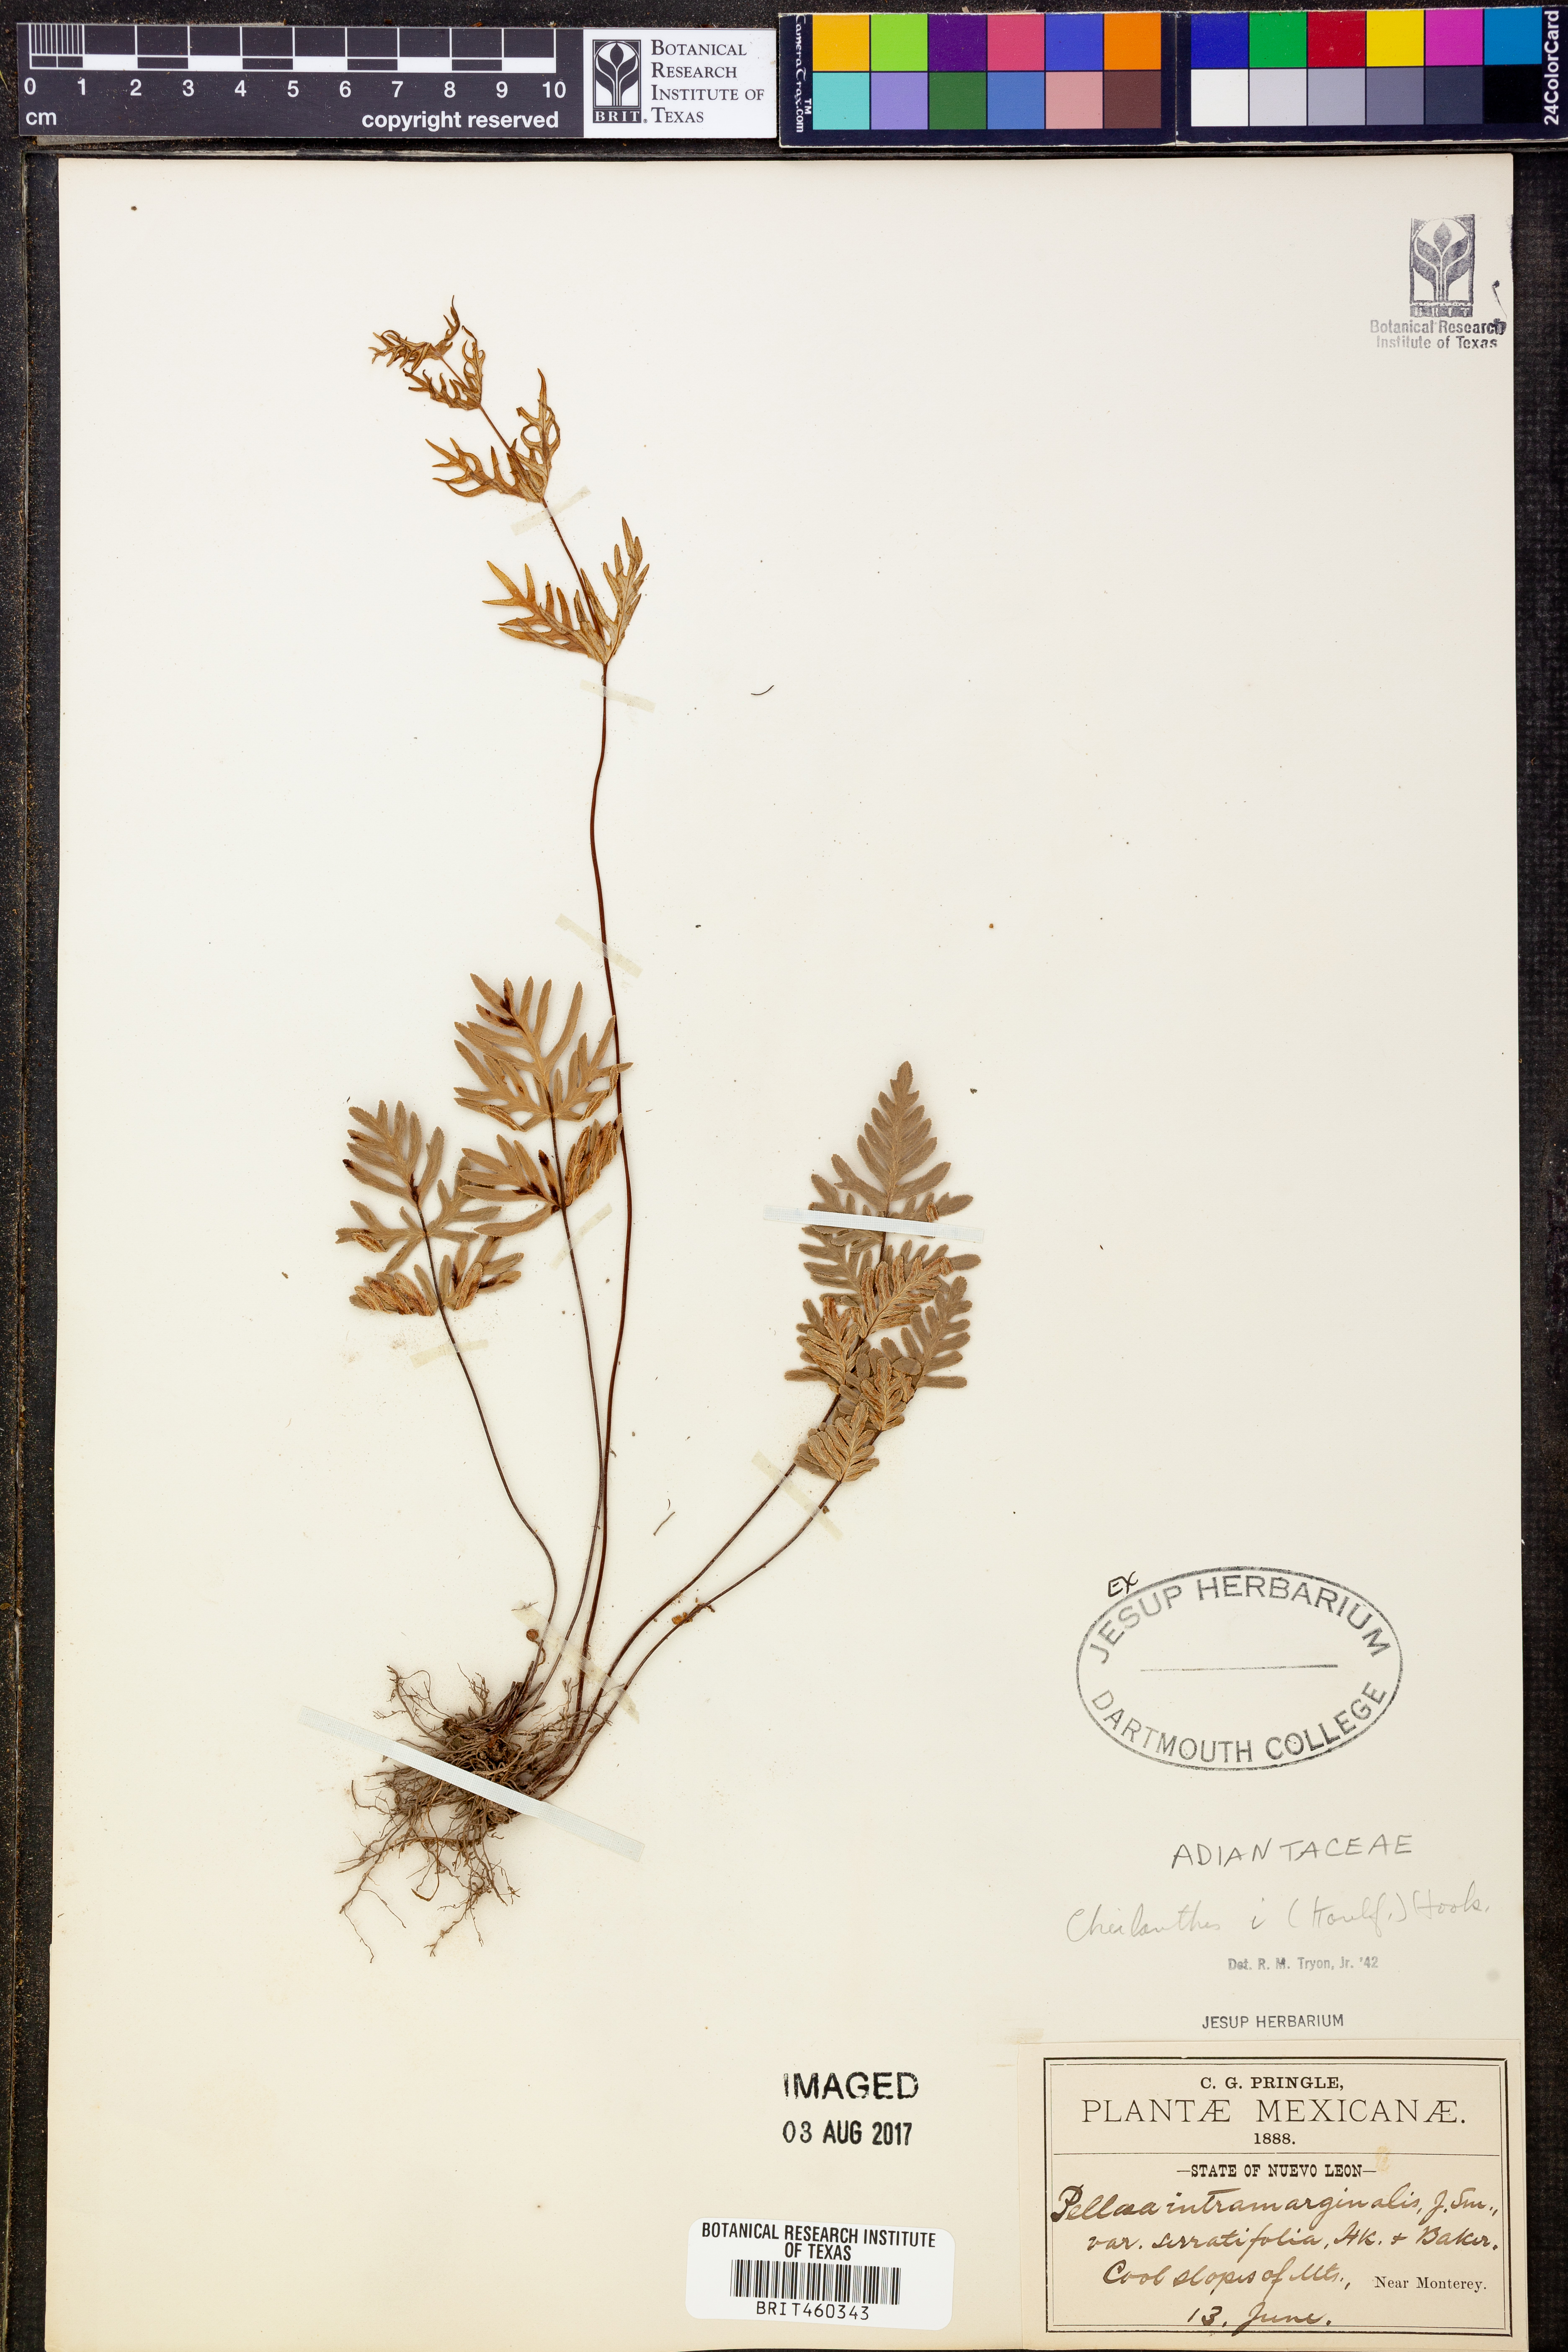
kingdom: Plantae
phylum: Tracheophyta
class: Polypodiopsida
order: Polypodiales
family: Pteridaceae
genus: Cheilanthes
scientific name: Cheilanthes
